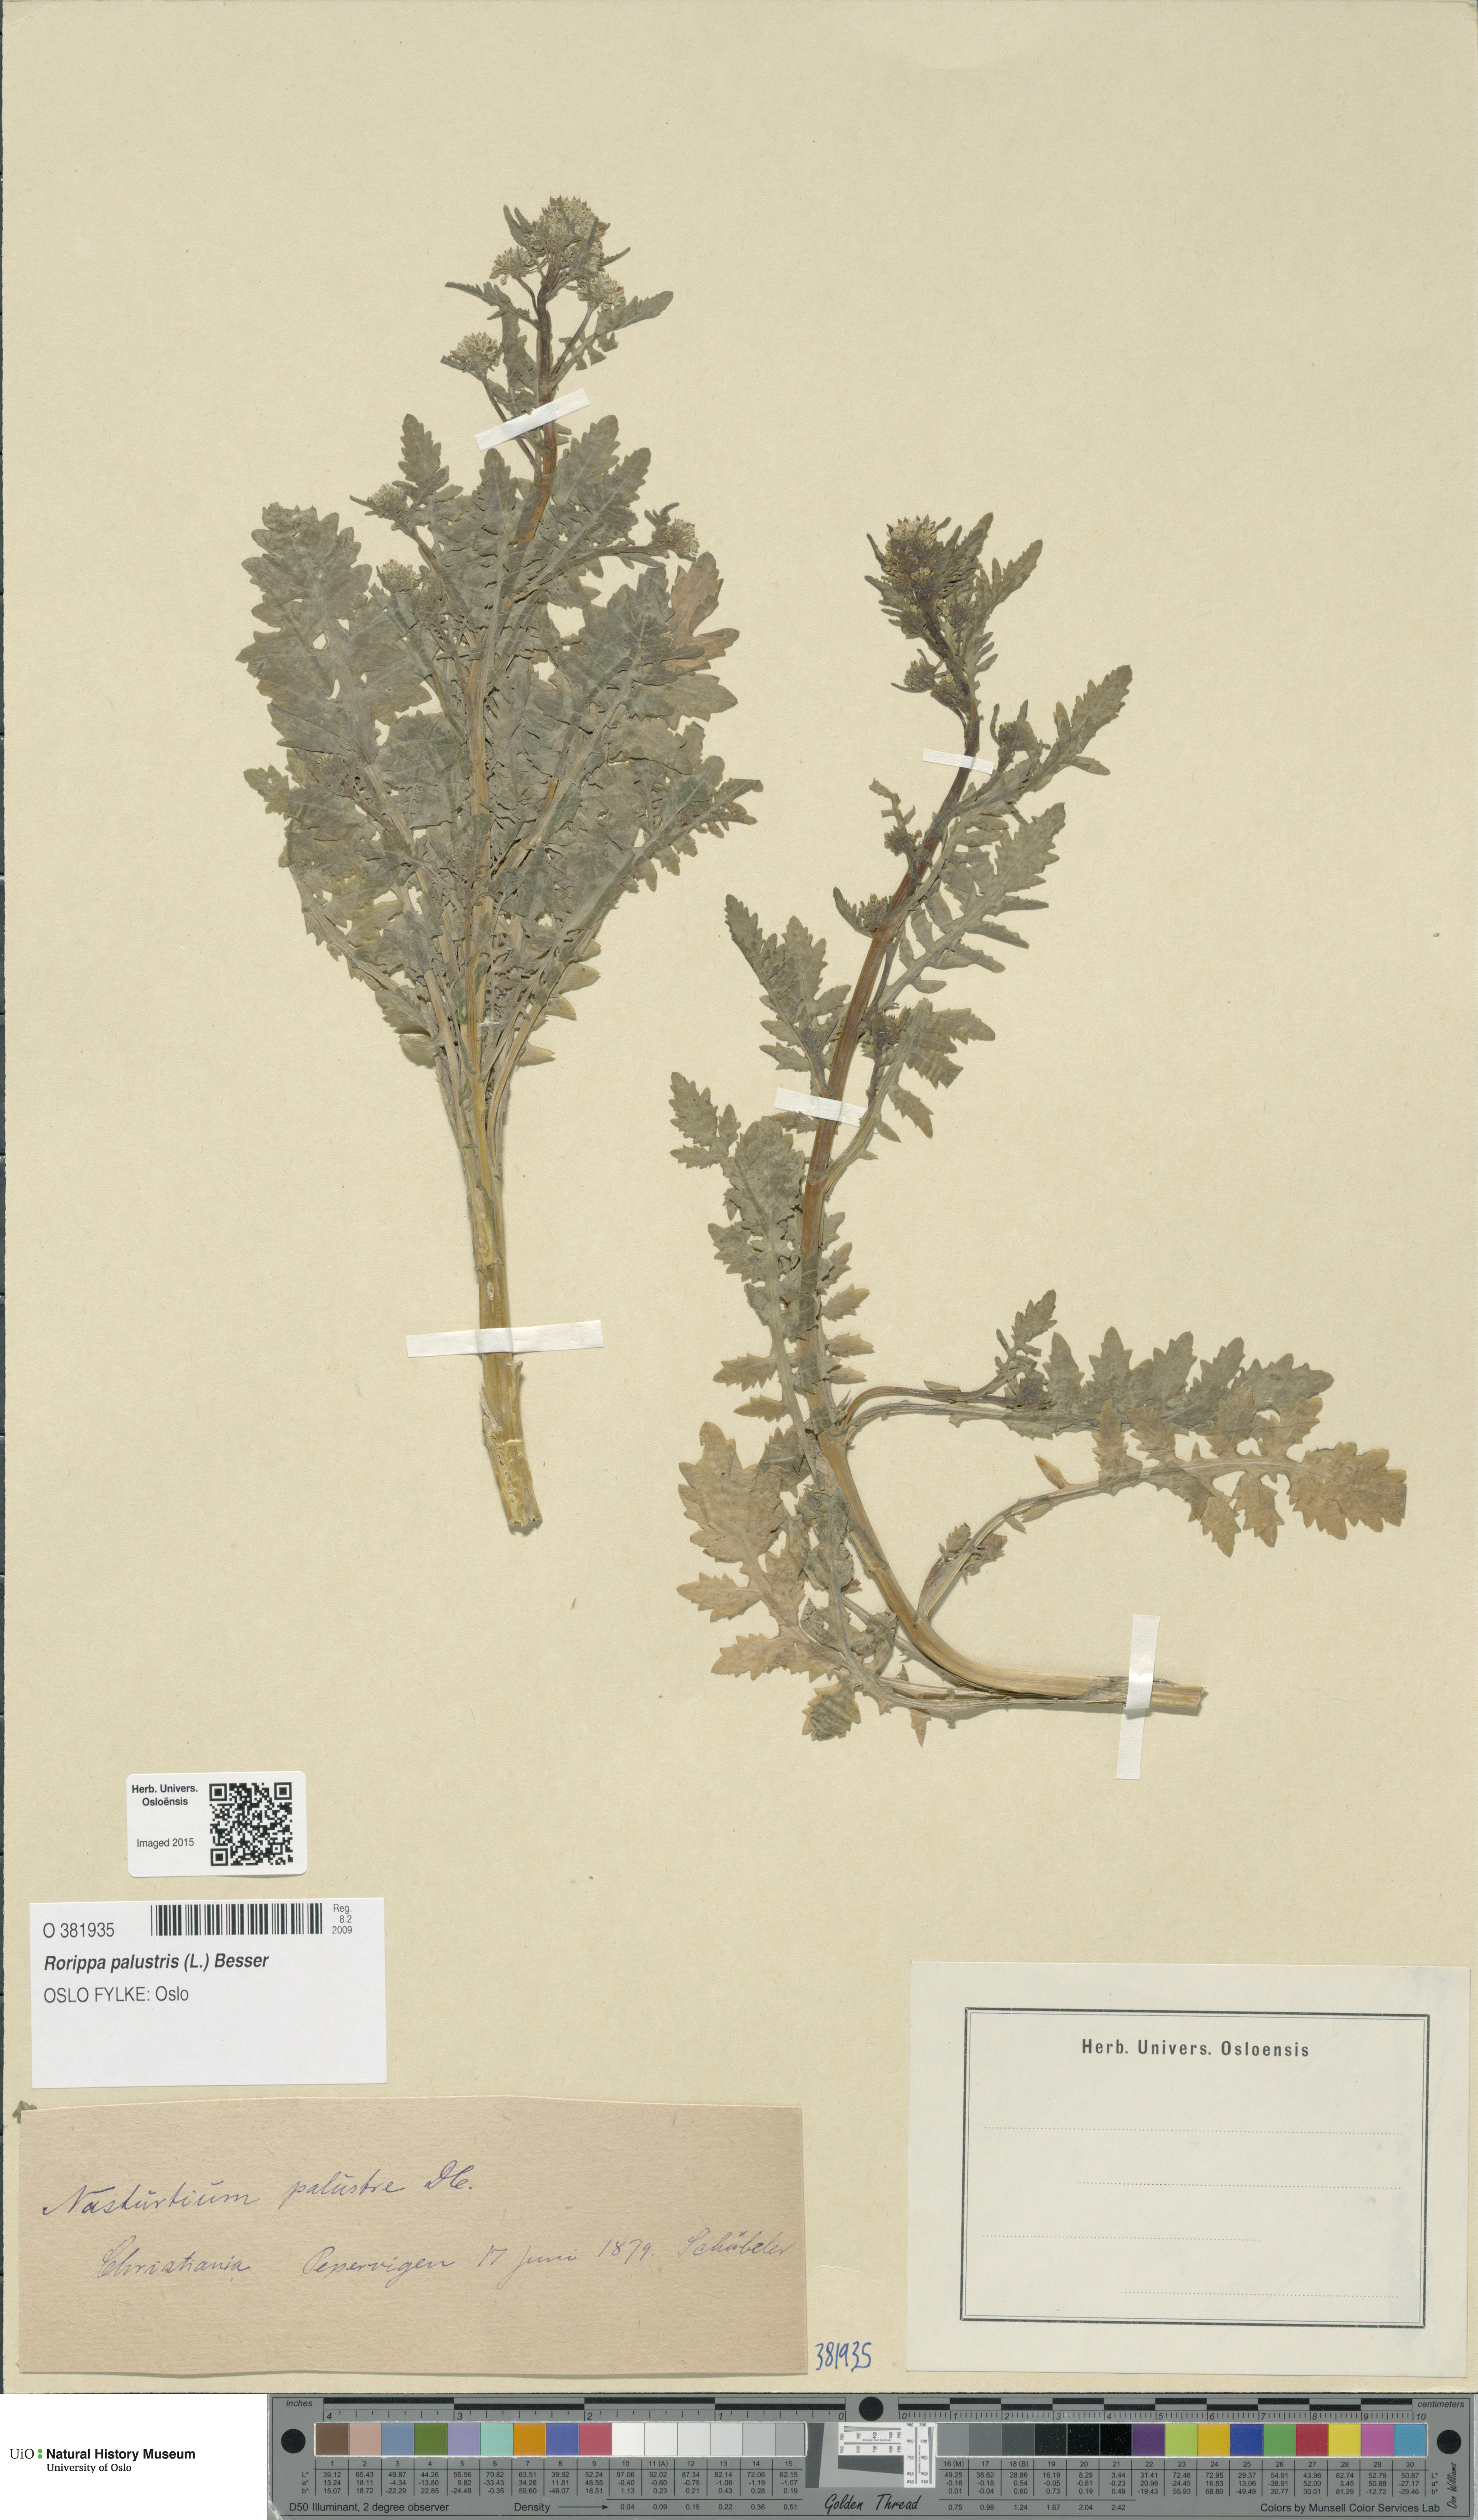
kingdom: Plantae
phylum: Tracheophyta
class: Magnoliopsida
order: Brassicales
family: Brassicaceae
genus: Rorippa
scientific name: Rorippa palustris
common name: Marsh yellow-cress
